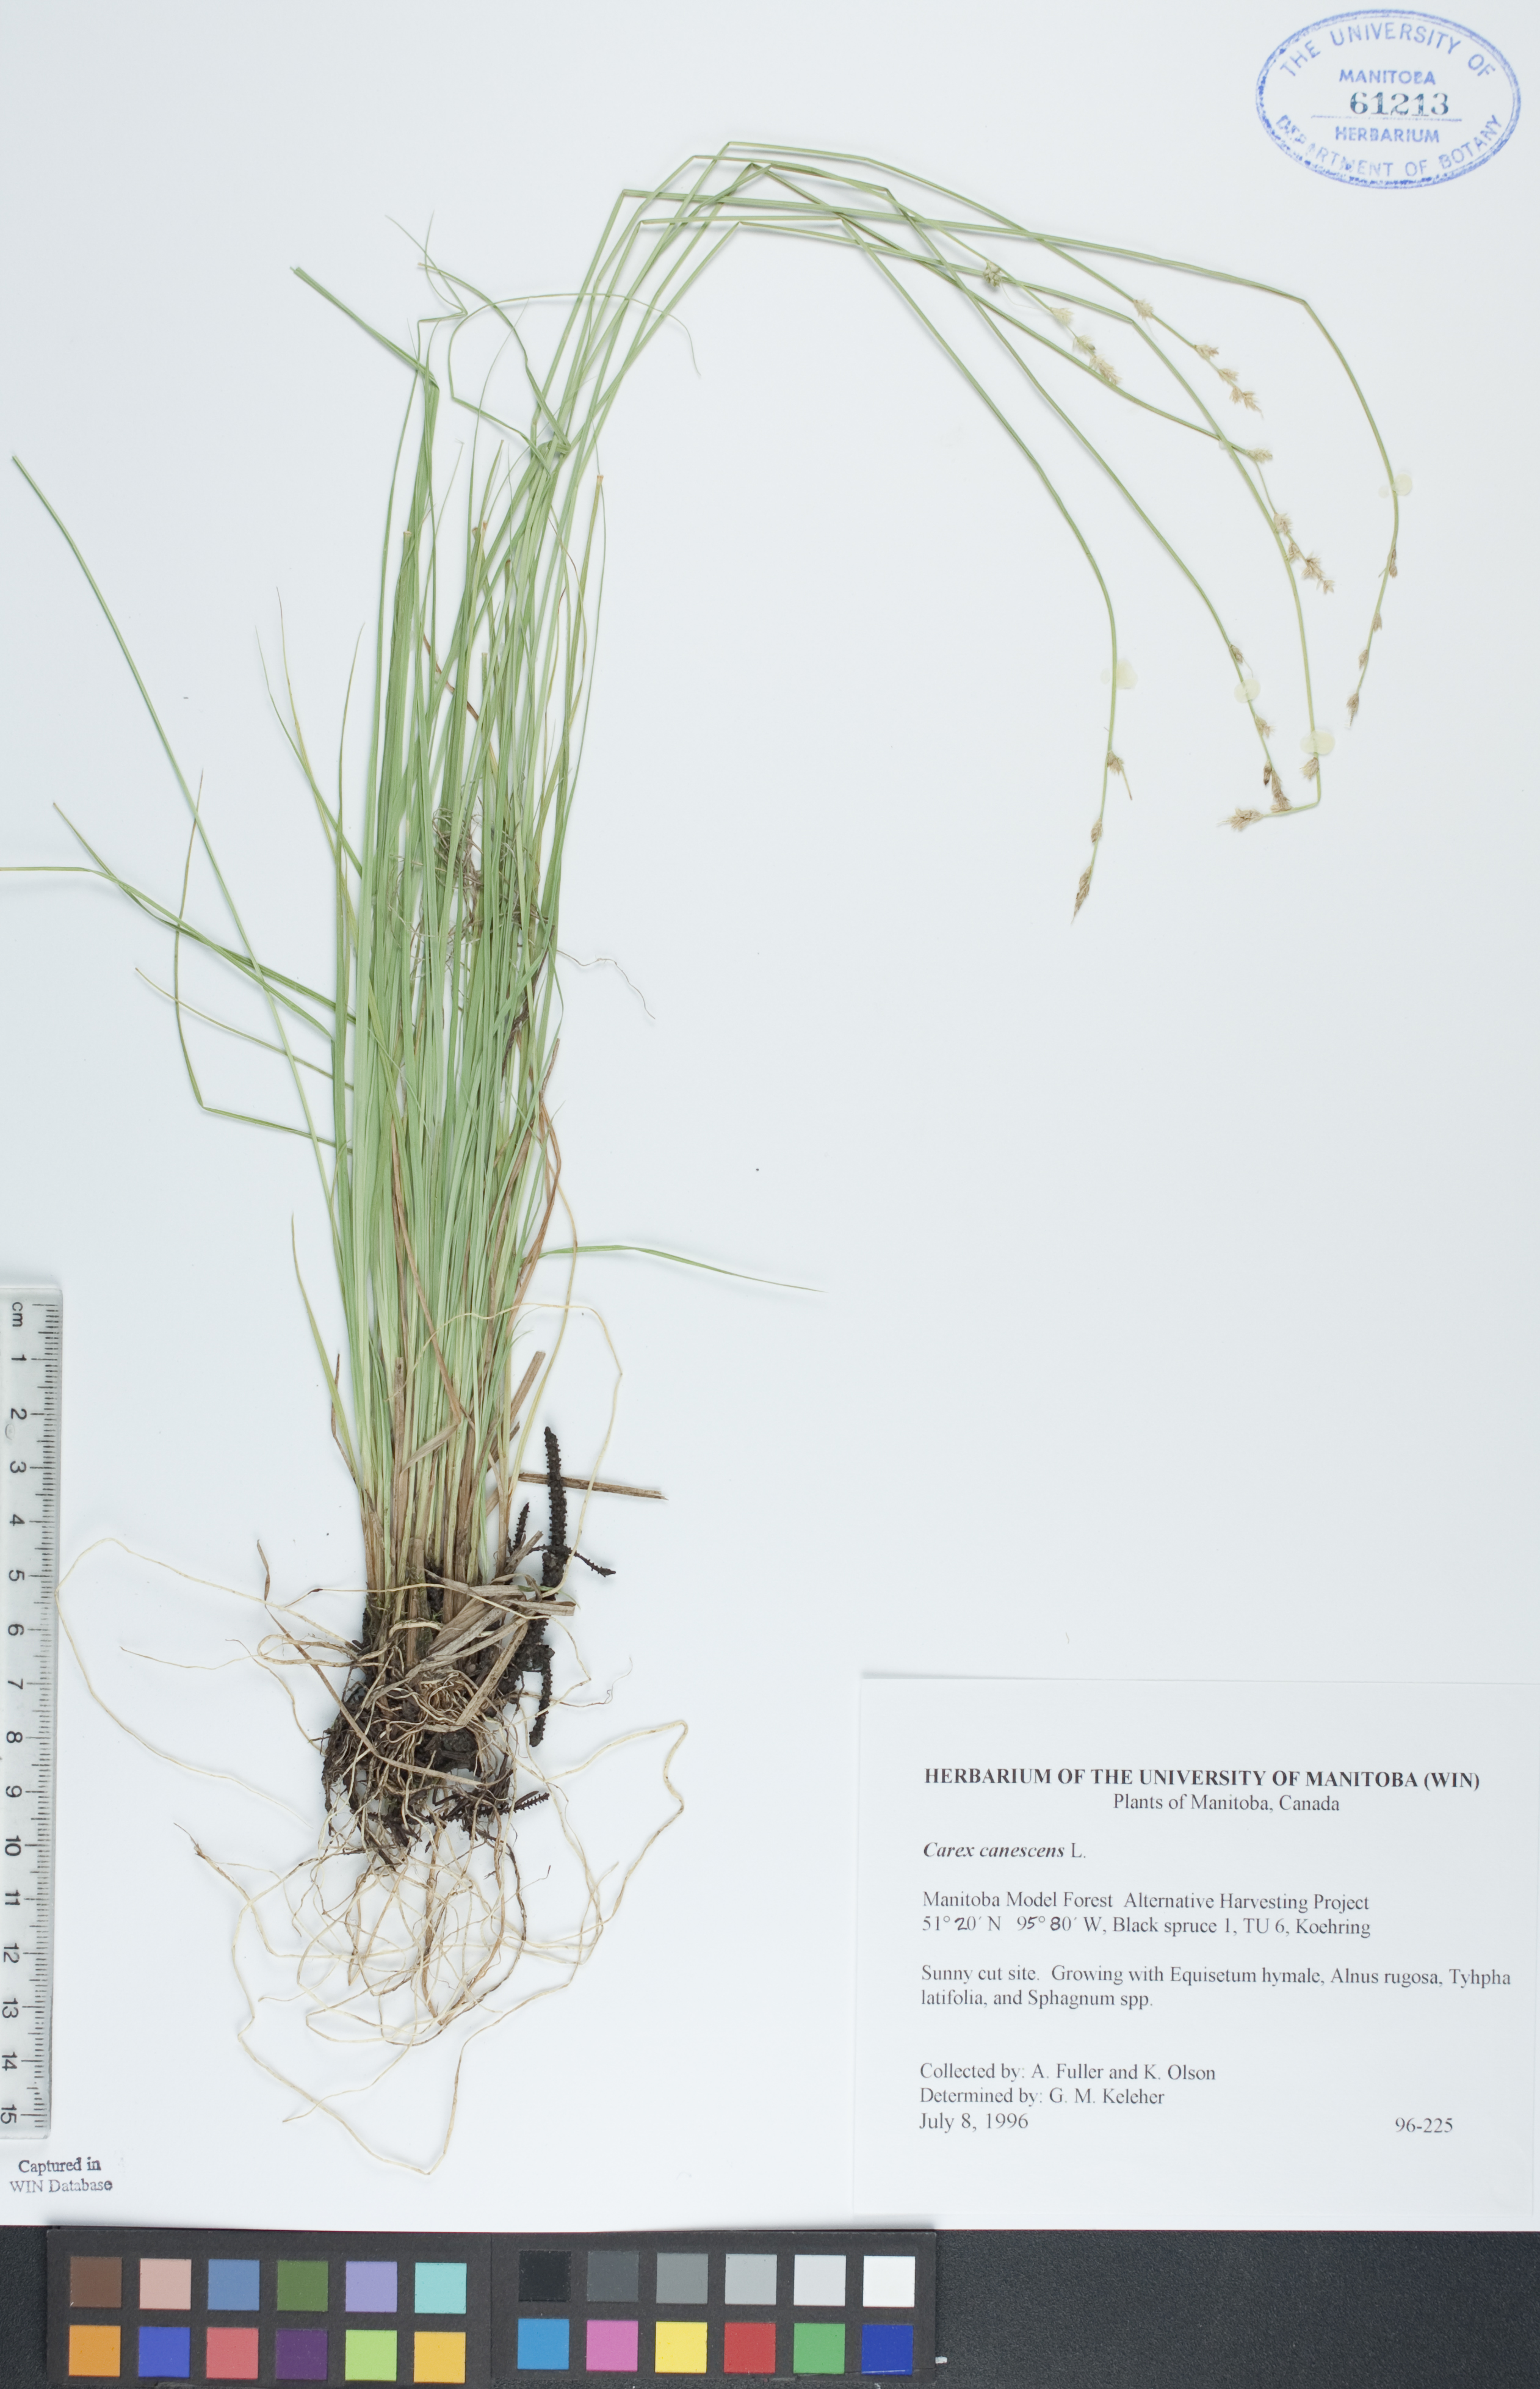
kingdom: Plantae
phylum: Tracheophyta
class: Liliopsida
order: Poales
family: Cyperaceae
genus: Carex
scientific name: Carex canescens
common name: White sedge
